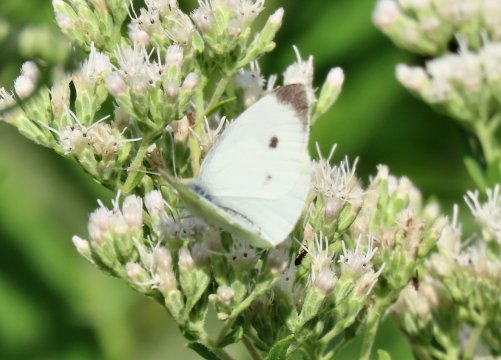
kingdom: Animalia
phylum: Arthropoda
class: Insecta
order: Lepidoptera
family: Pieridae
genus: Pieris
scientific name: Pieris rapae
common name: Cabbage White
